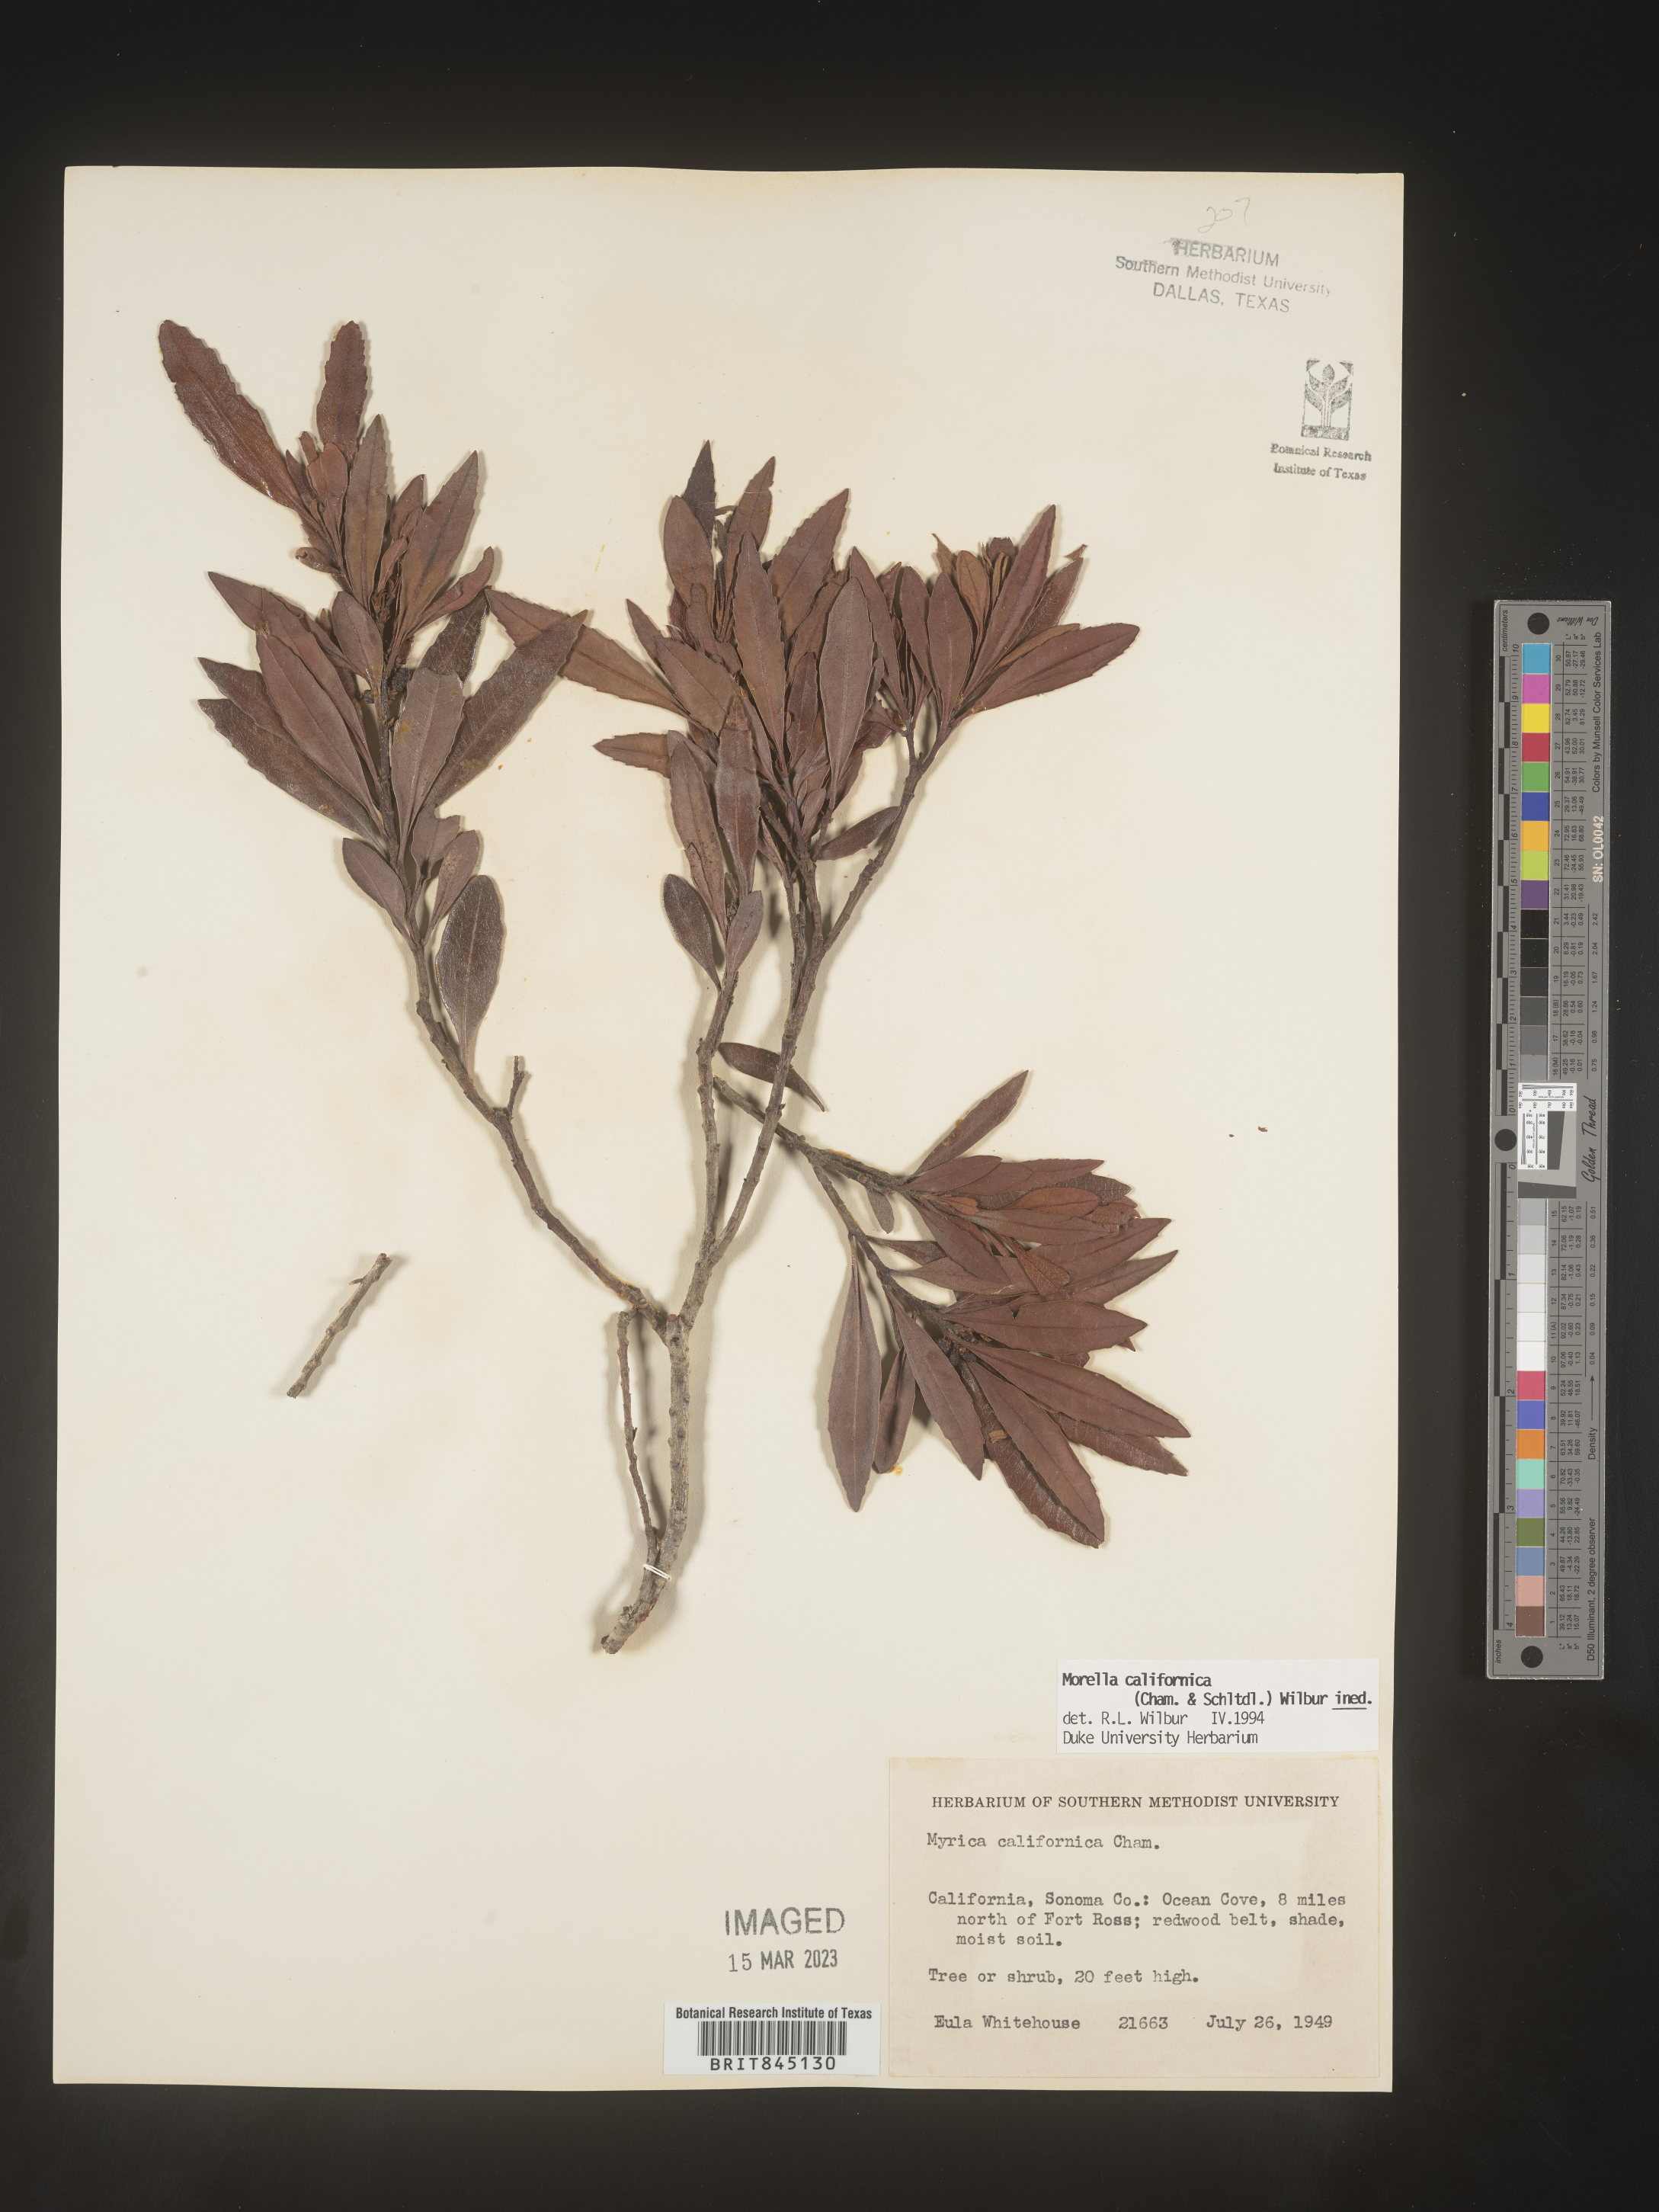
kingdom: Plantae
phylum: Tracheophyta
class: Magnoliopsida
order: Fagales
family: Myricaceae
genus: Morella
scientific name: Morella californica
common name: California wax-myrtle
